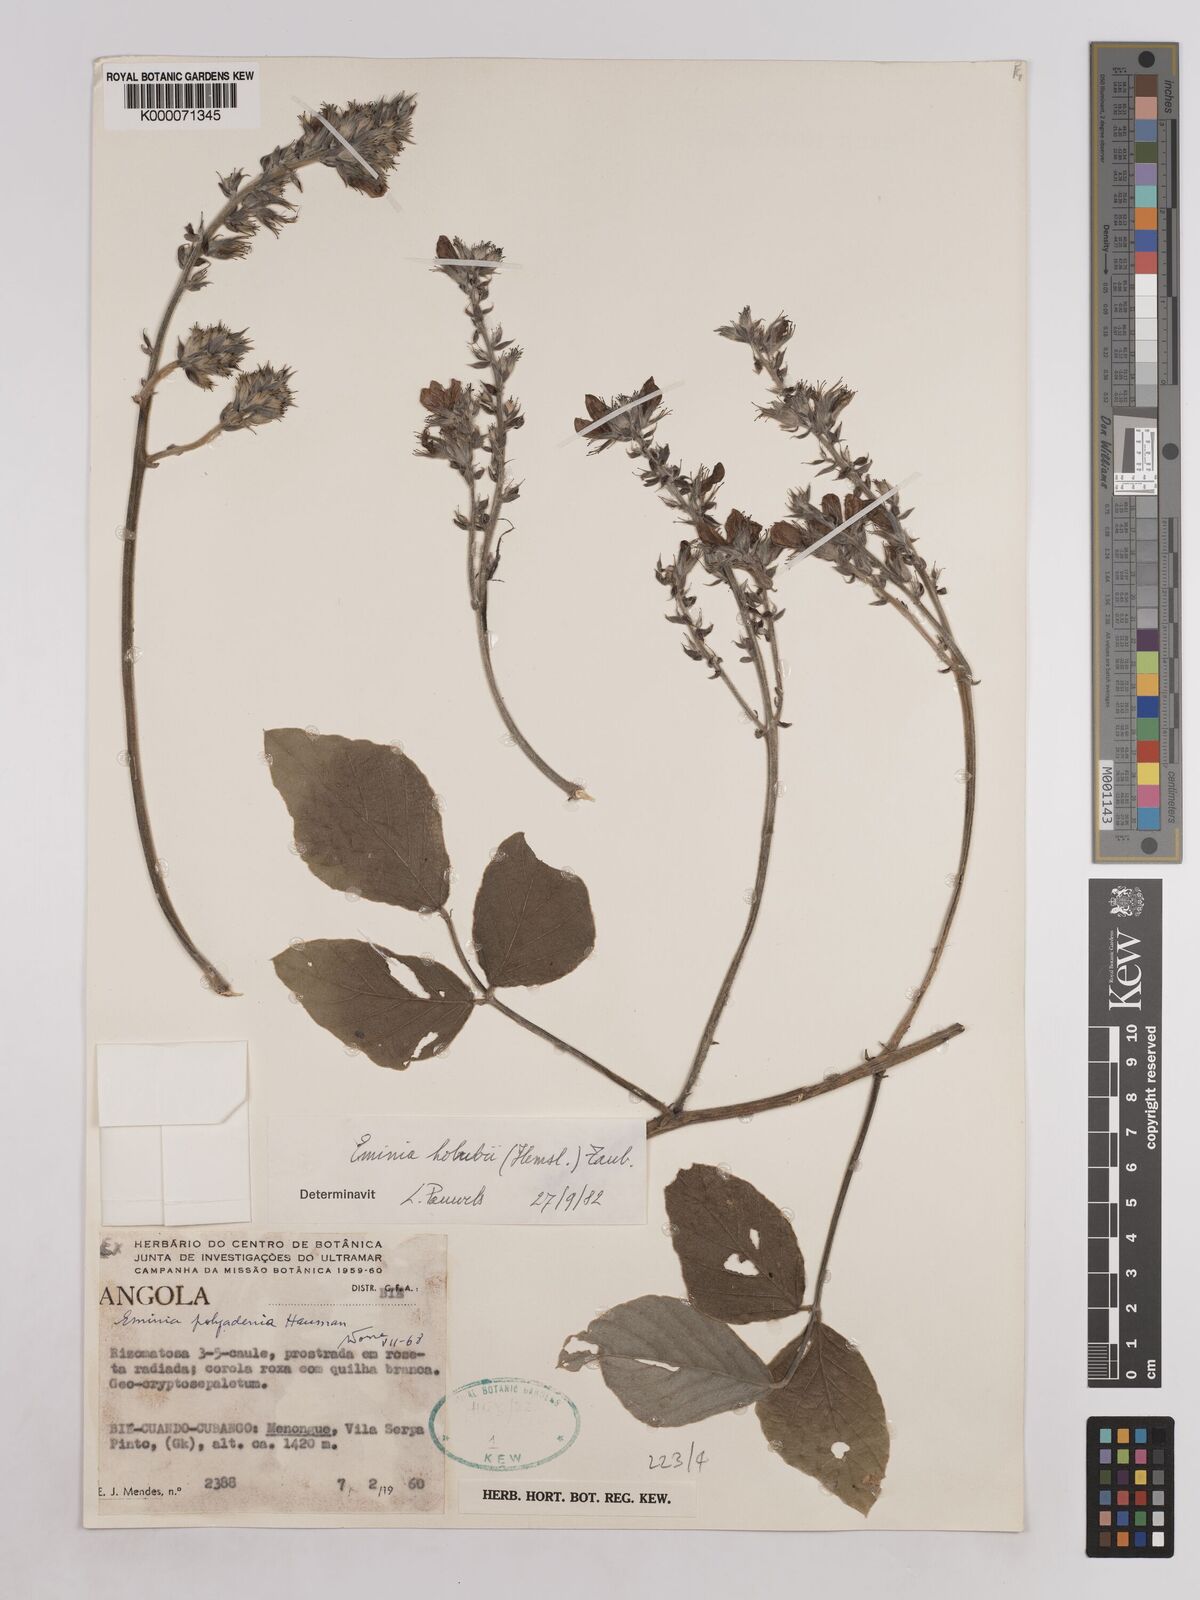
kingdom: Plantae
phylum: Tracheophyta
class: Magnoliopsida
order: Fabales
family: Fabaceae
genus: Eminia
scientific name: Eminia holubii
